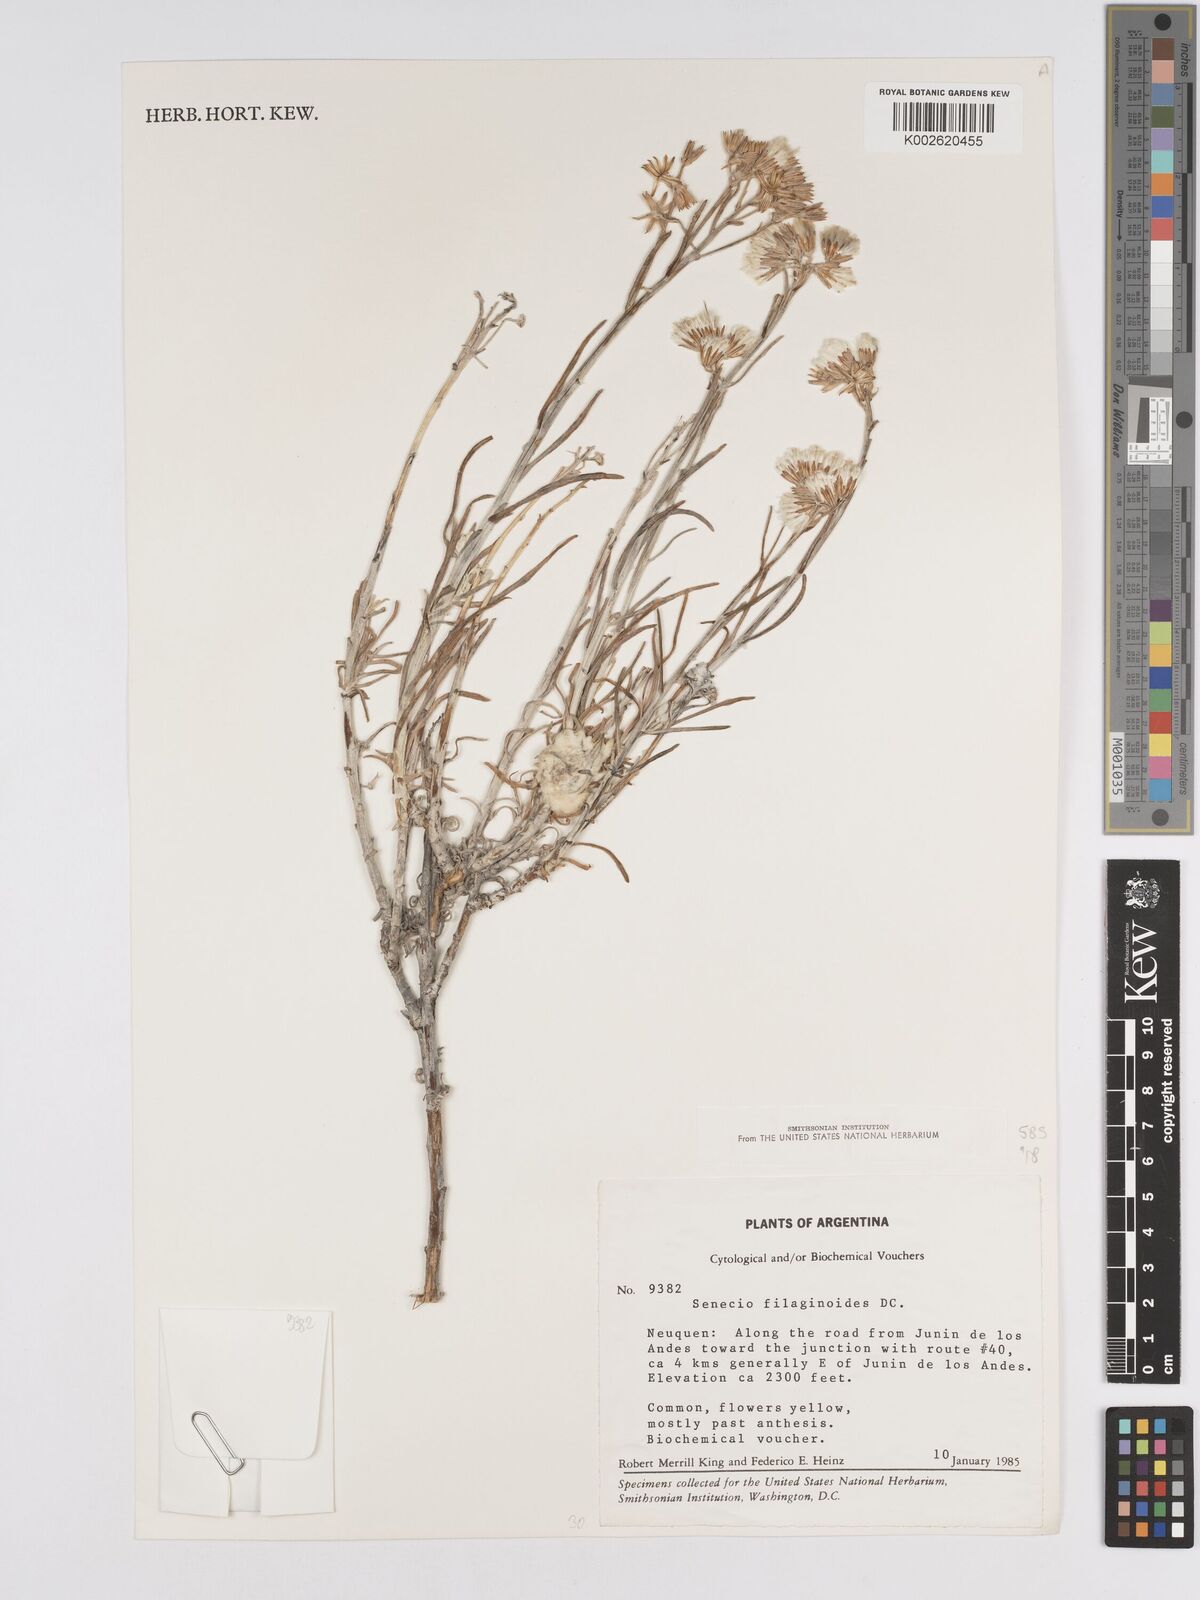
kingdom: Plantae
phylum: Tracheophyta
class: Magnoliopsida
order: Asterales
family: Asteraceae
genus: Senecio
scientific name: Senecio filaginoides
